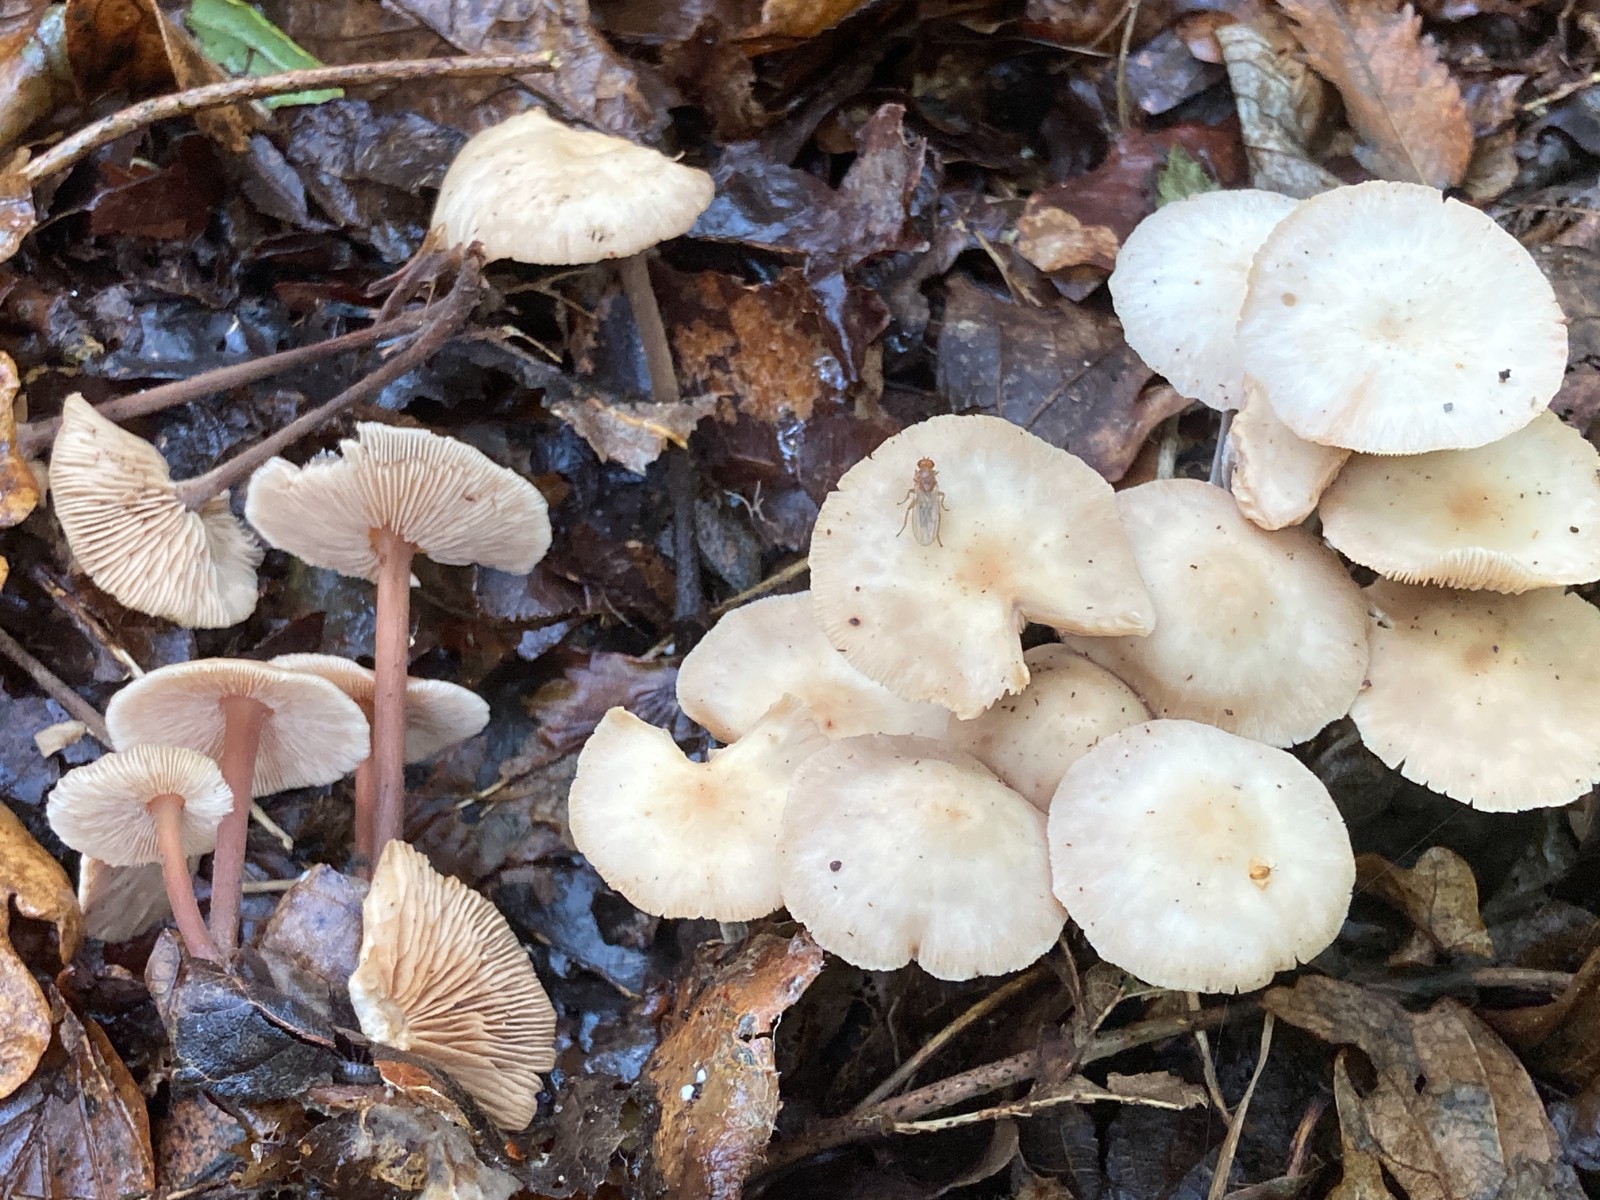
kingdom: Fungi
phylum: Basidiomycota
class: Agaricomycetes
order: Agaricales
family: Omphalotaceae
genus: Collybiopsis
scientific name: Collybiopsis confluens
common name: knippe-fladhat
